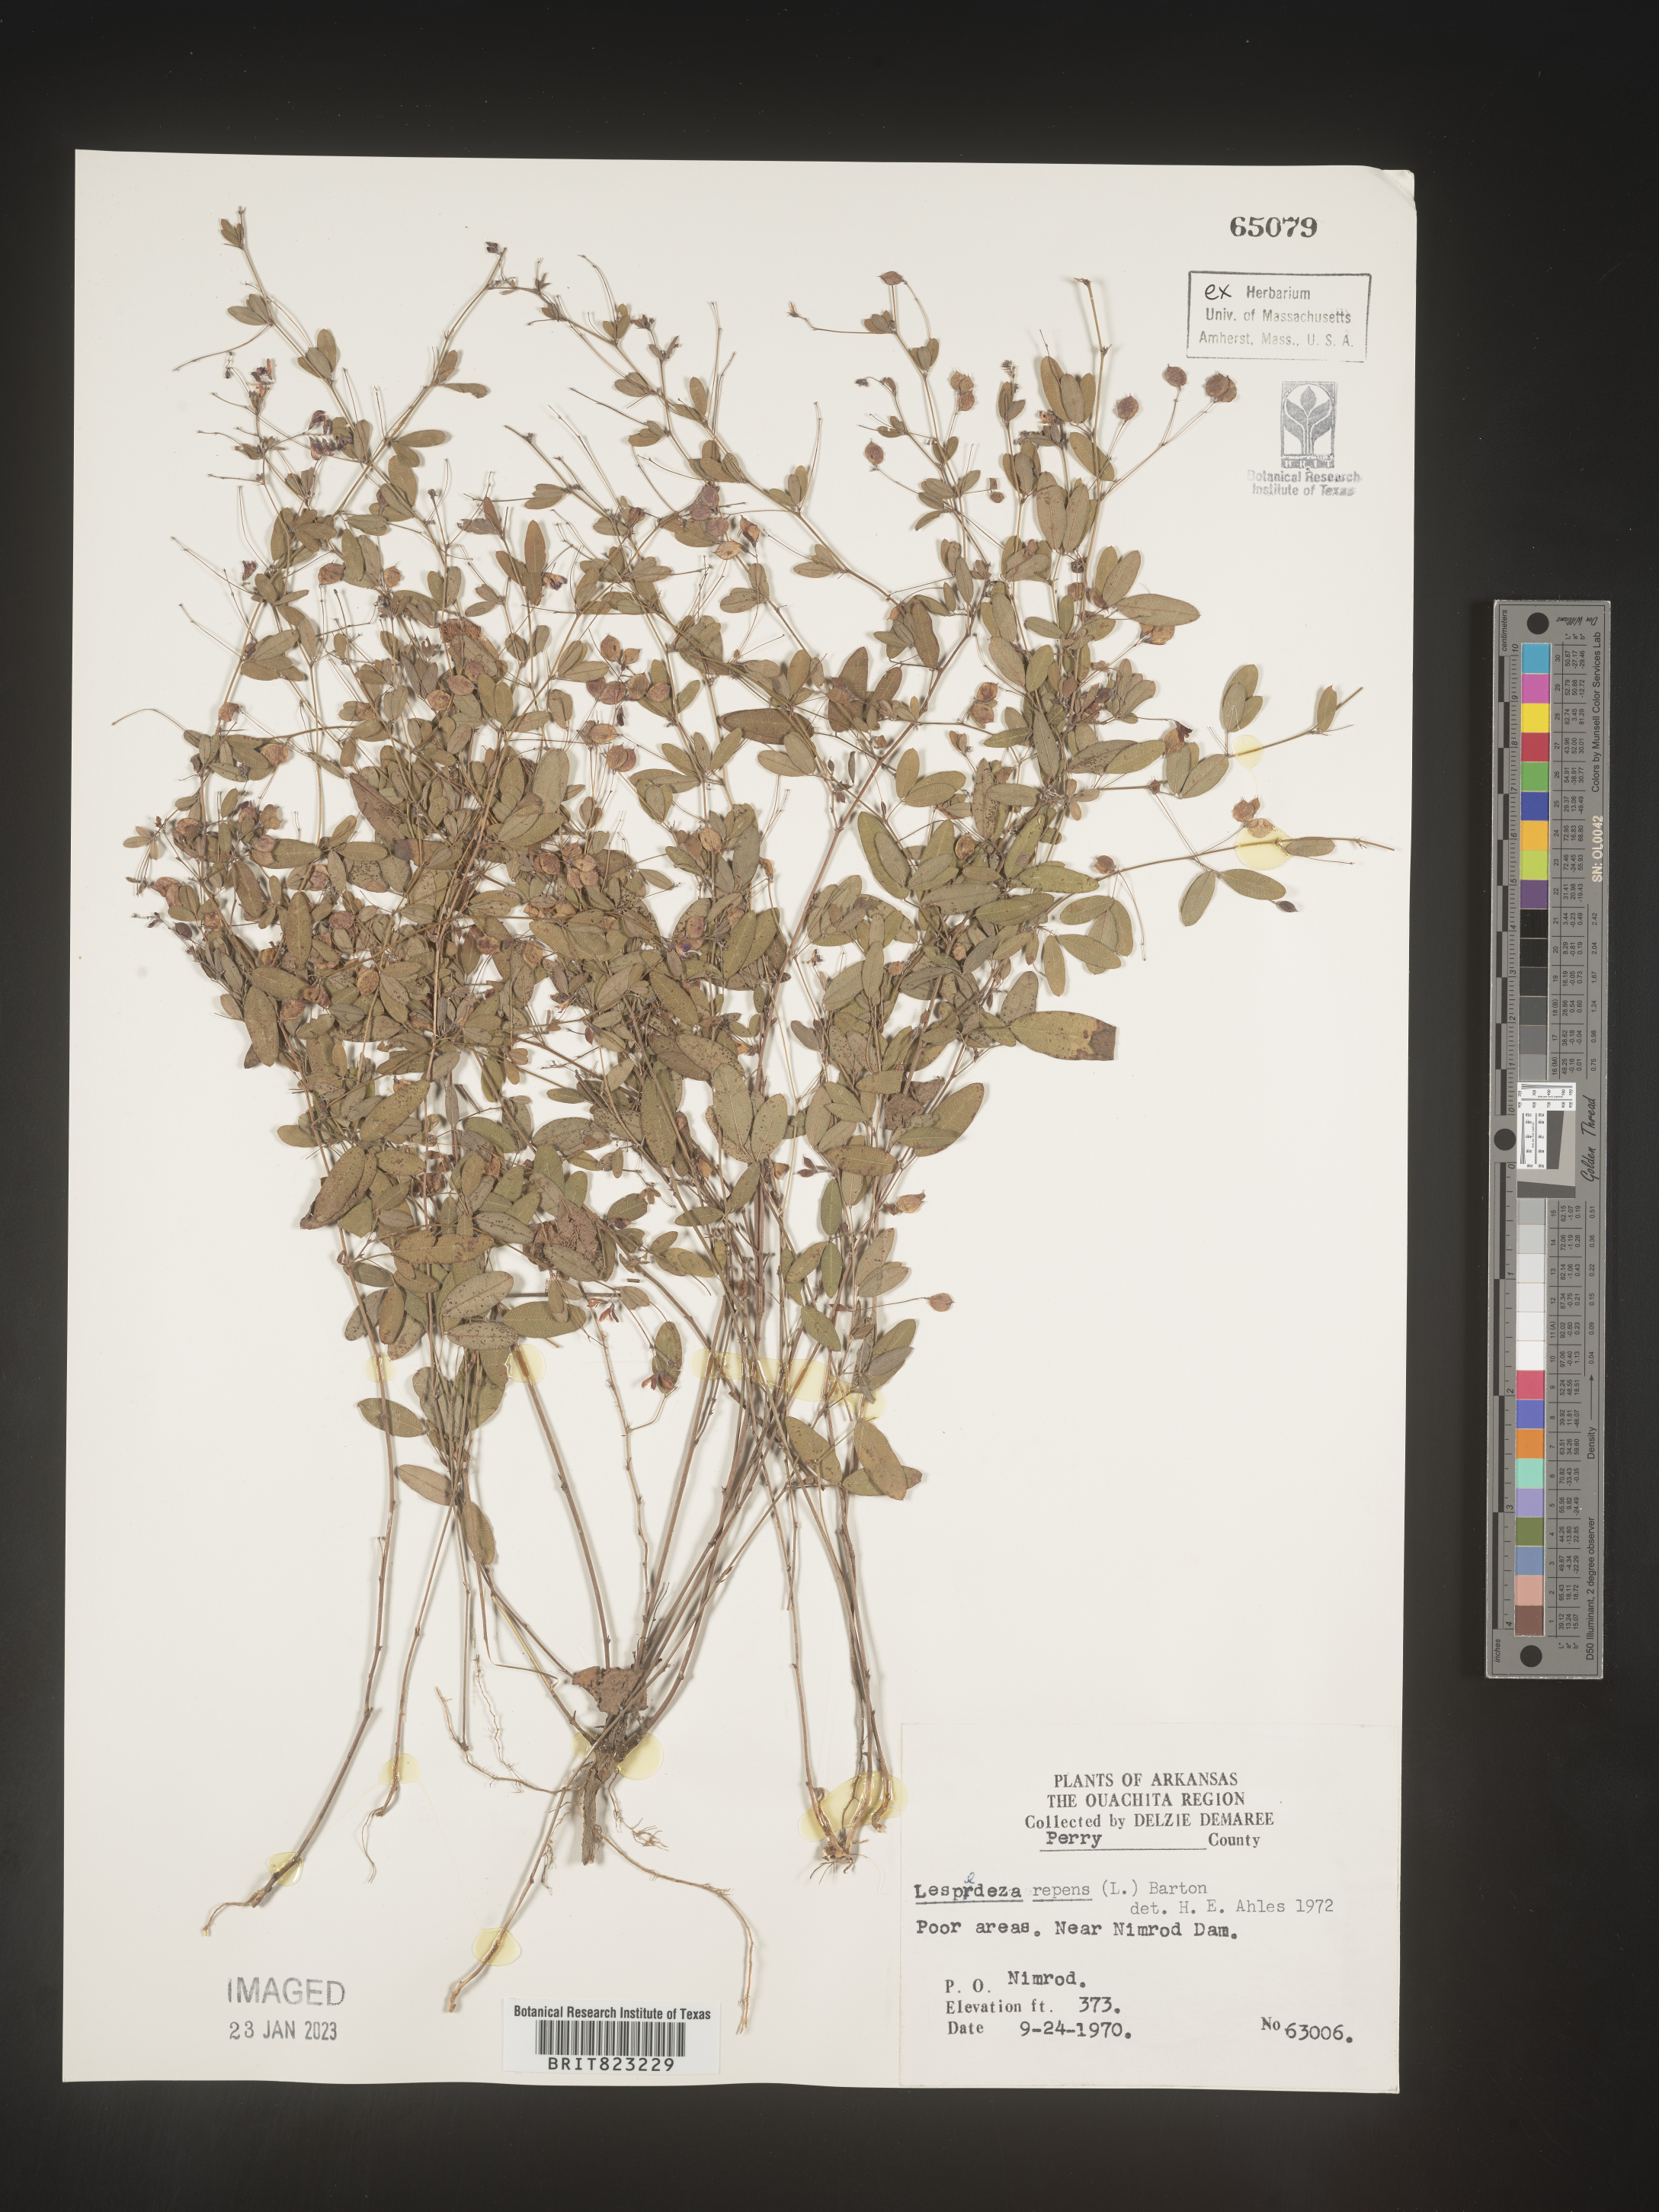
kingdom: Plantae
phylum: Tracheophyta
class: Magnoliopsida
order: Fabales
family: Fabaceae
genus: Lespedeza
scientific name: Lespedeza repens
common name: Creeping bush-clover
